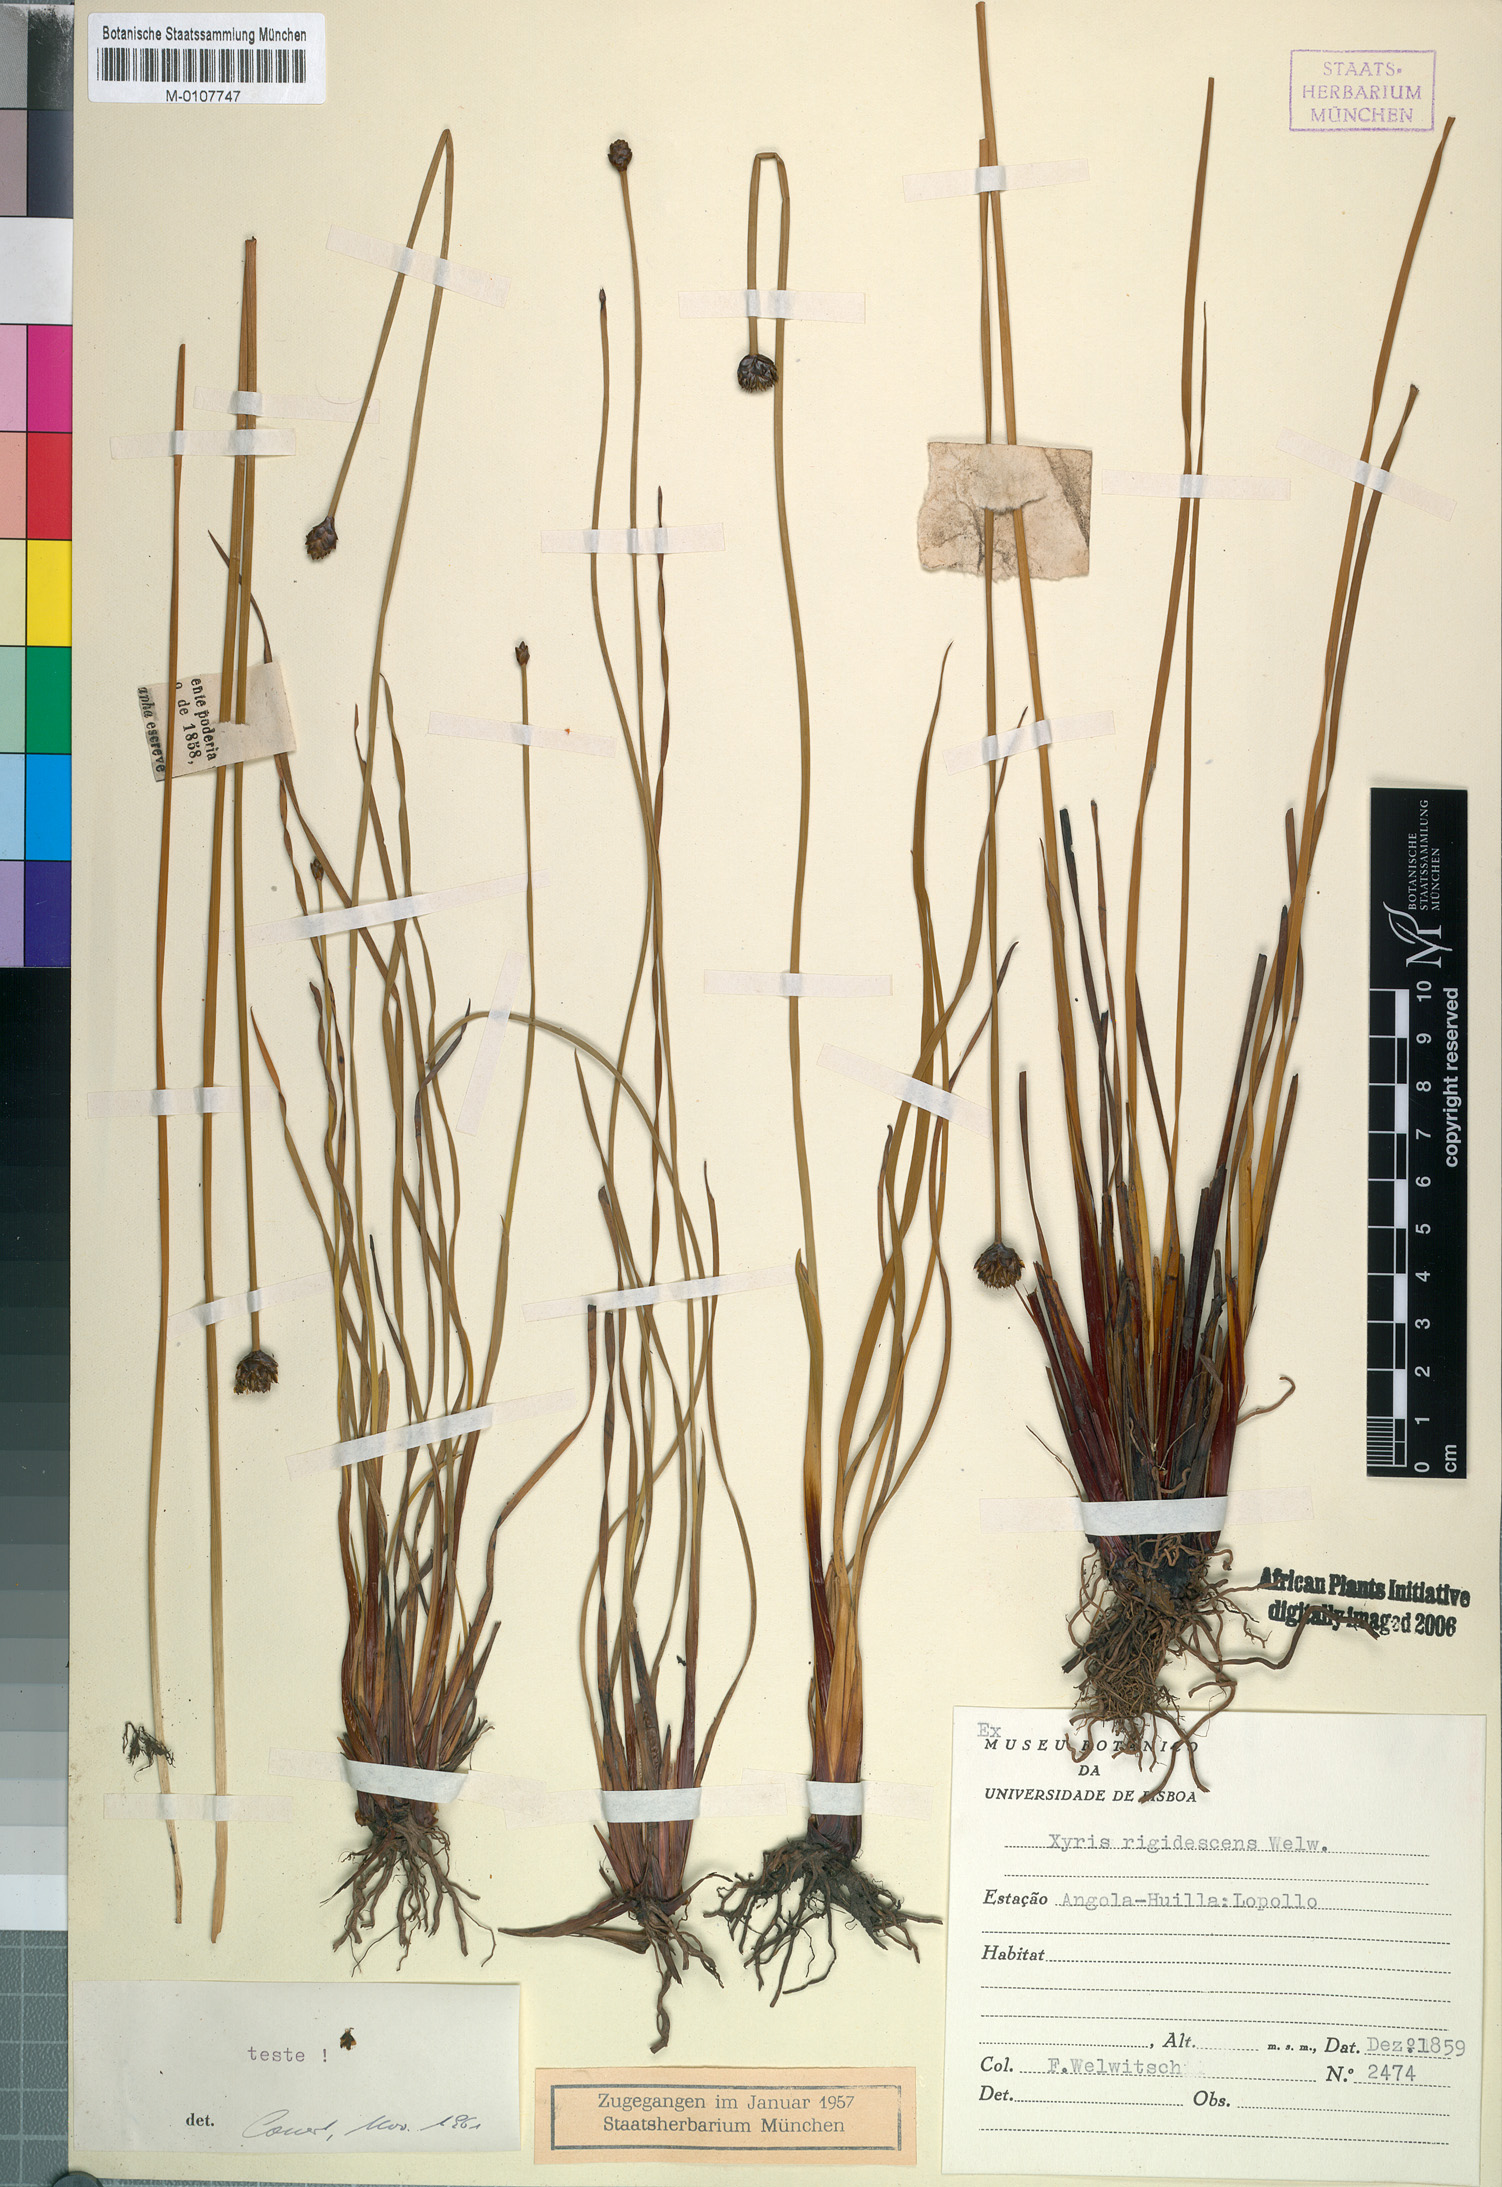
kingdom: Plantae
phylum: Tracheophyta
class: Liliopsida
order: Poales
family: Xyridaceae
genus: Xyris
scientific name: Xyris rehmannii
